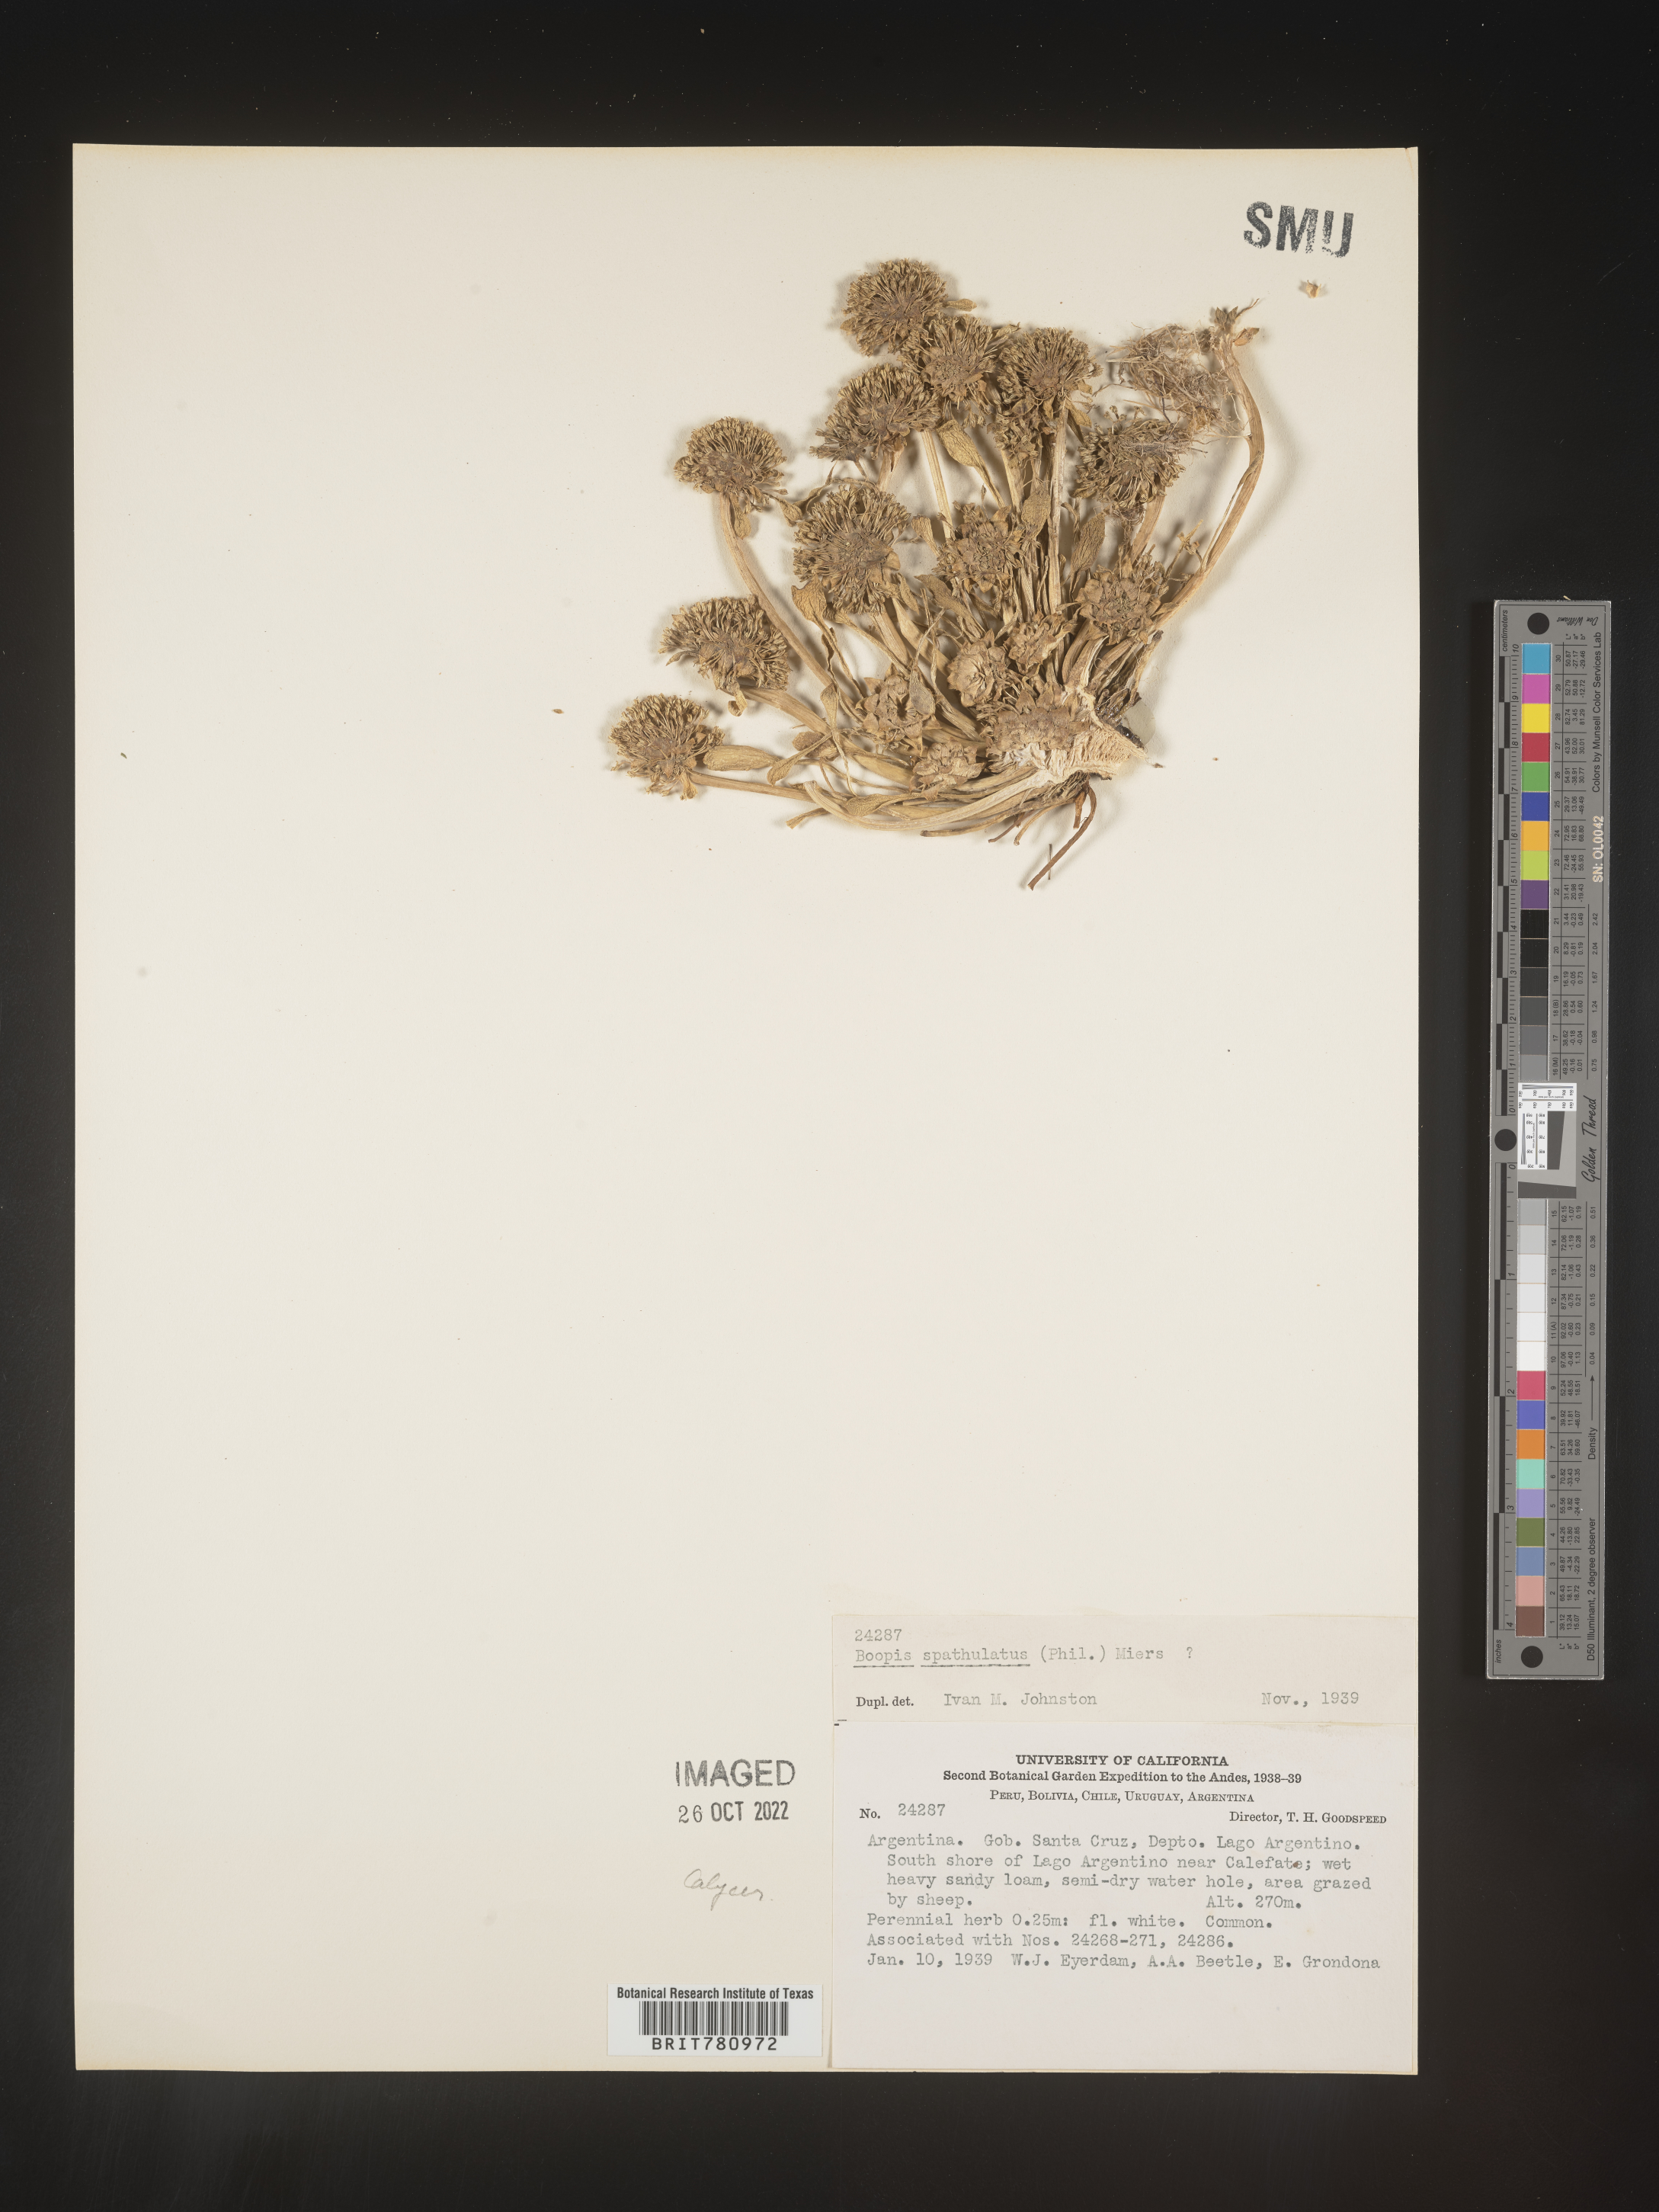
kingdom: Plantae
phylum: Tracheophyta
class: Magnoliopsida
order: Asterales
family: Calyceraceae
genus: Boopis
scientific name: Boopis
